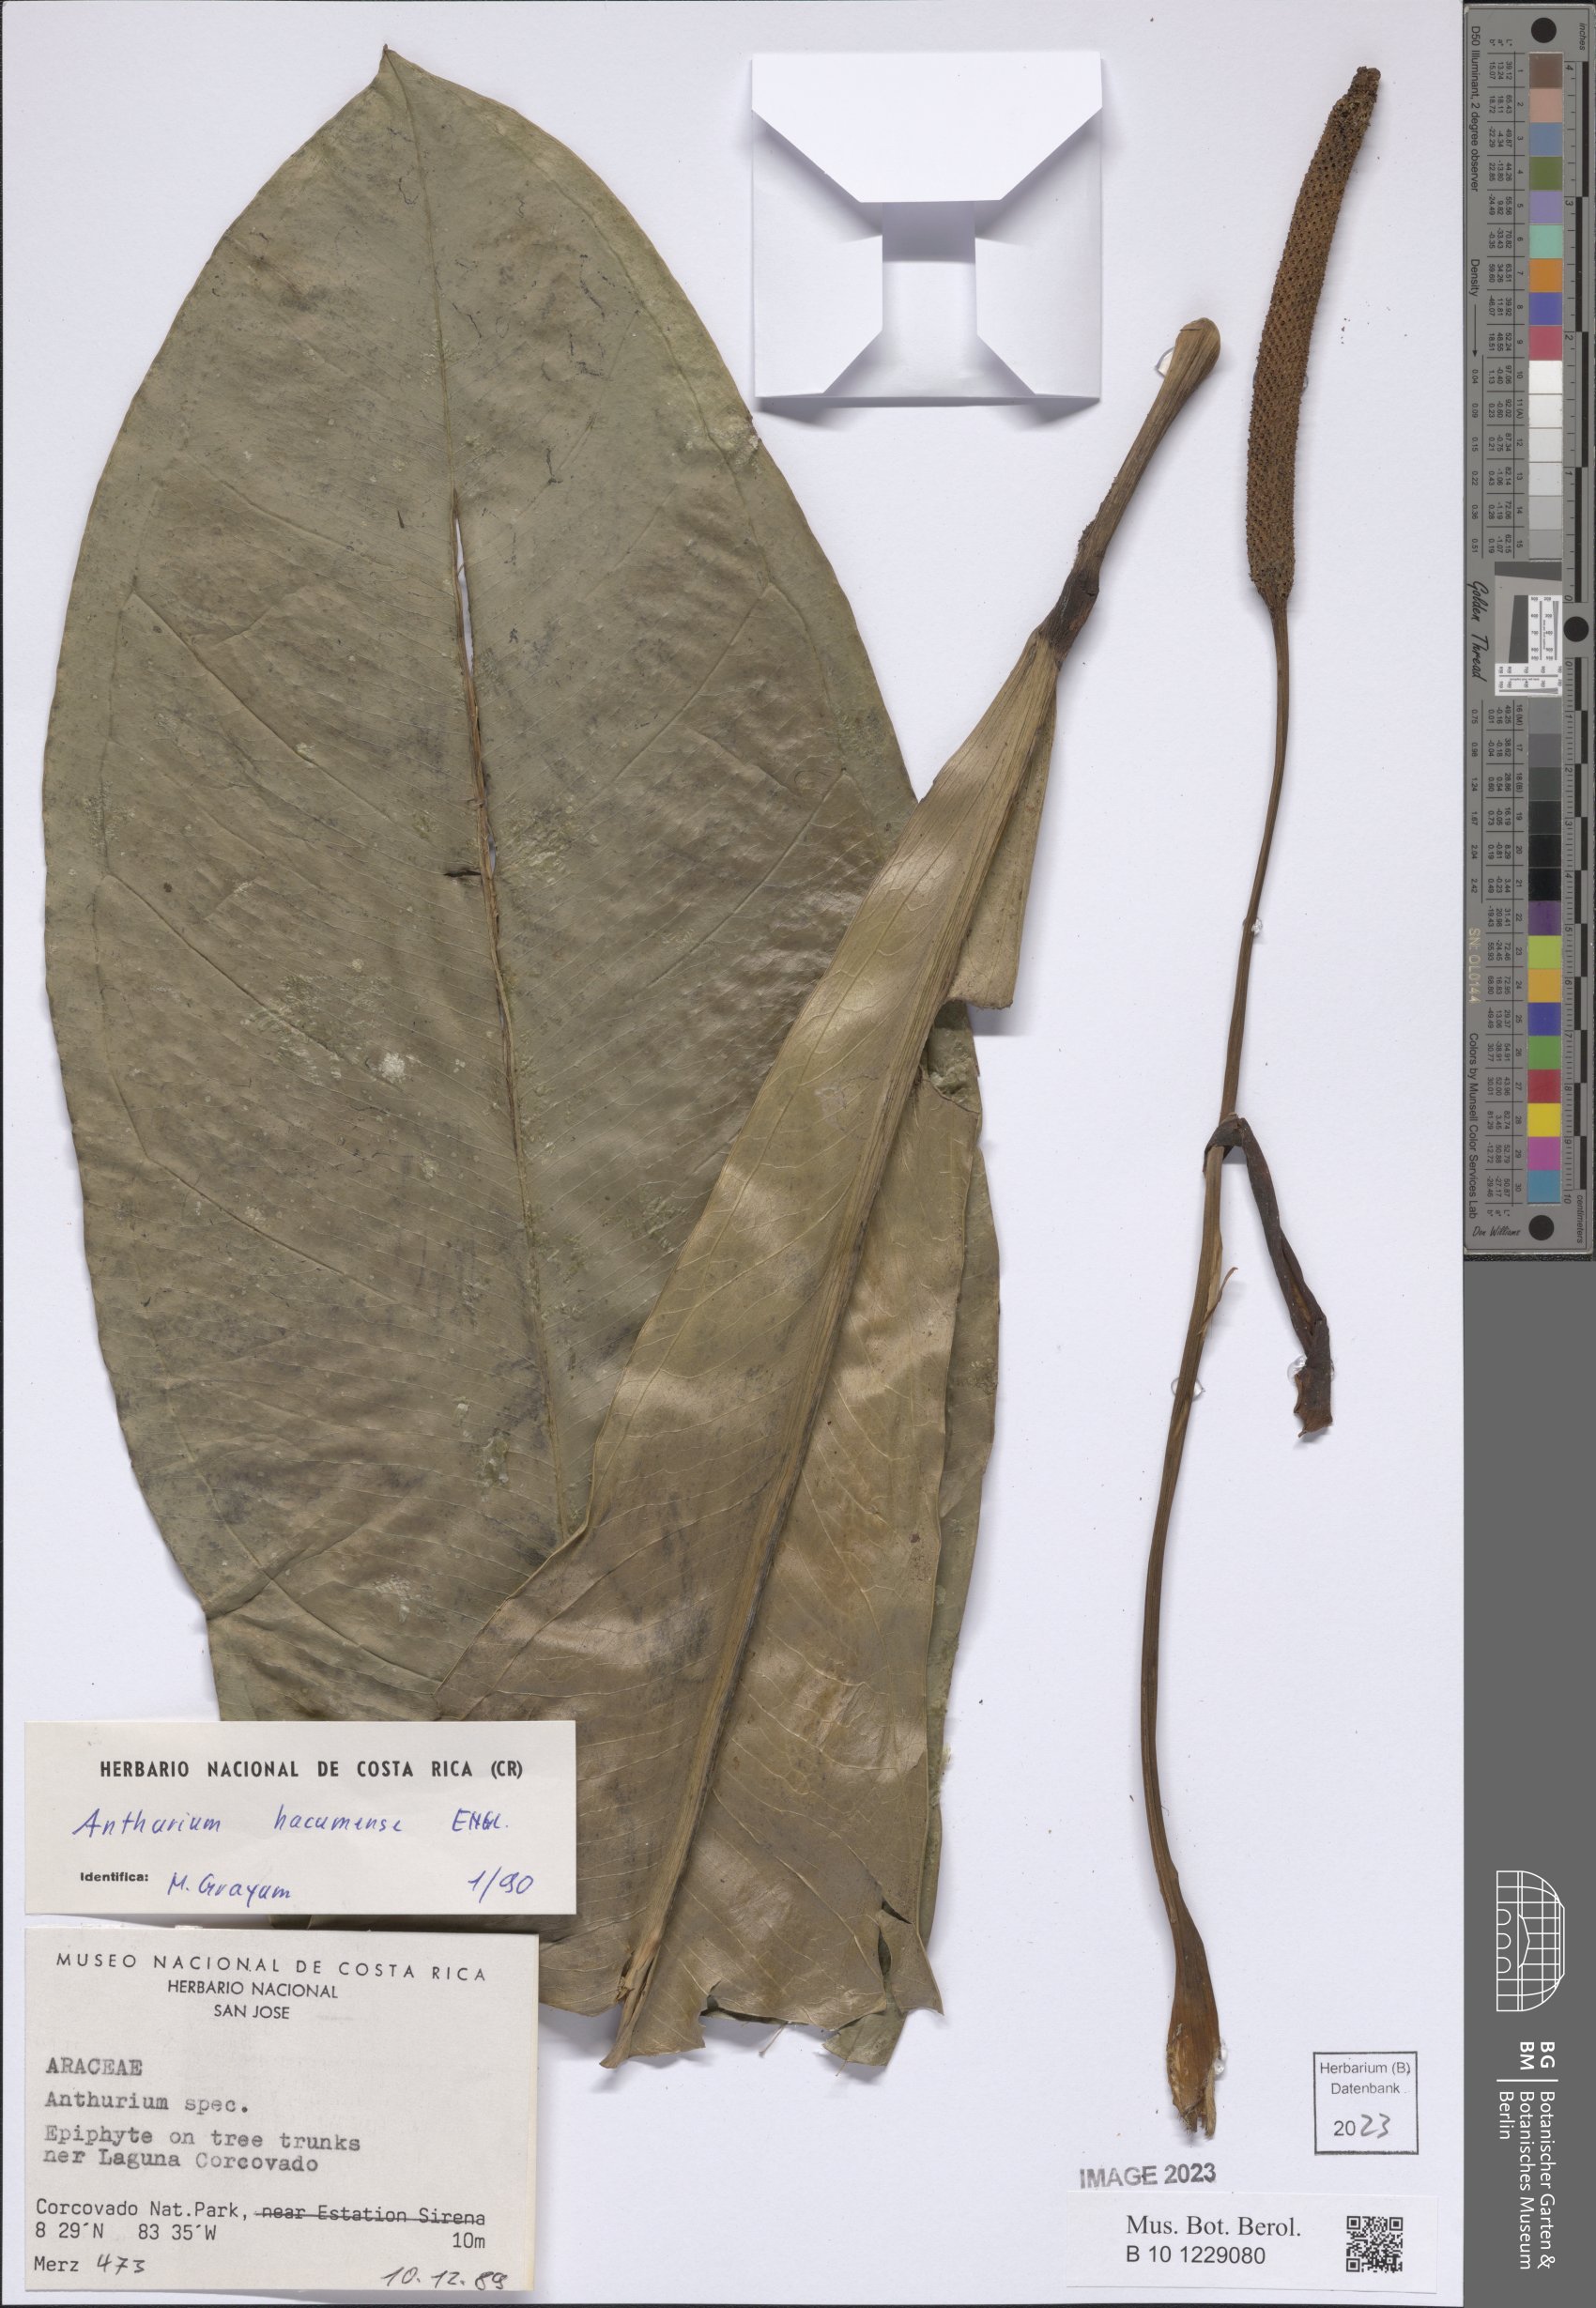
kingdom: Plantae
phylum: Tracheophyta
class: Liliopsida
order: Alismatales
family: Araceae
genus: Anthurium
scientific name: Anthurium hacumense
